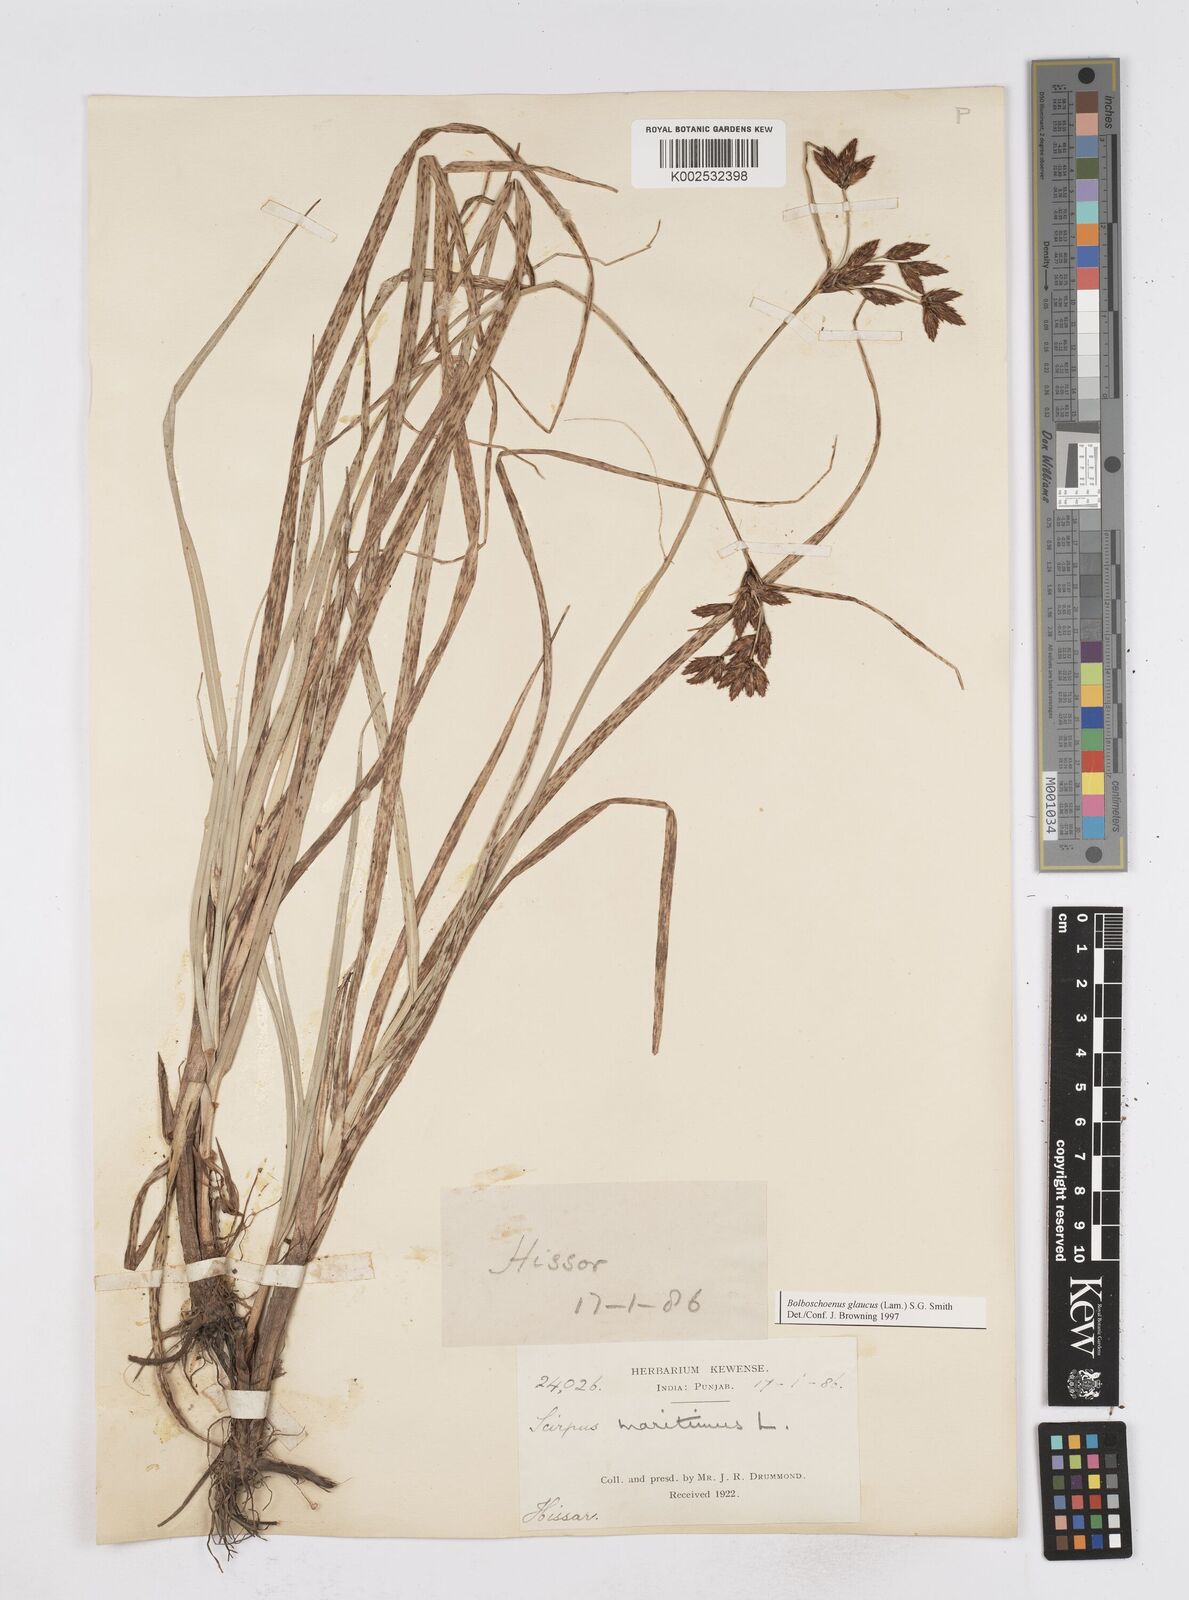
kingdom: Plantae
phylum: Tracheophyta
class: Liliopsida
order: Poales
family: Cyperaceae
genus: Bolboschoenus
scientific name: Bolboschoenus maritimus
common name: Sea club-rush
